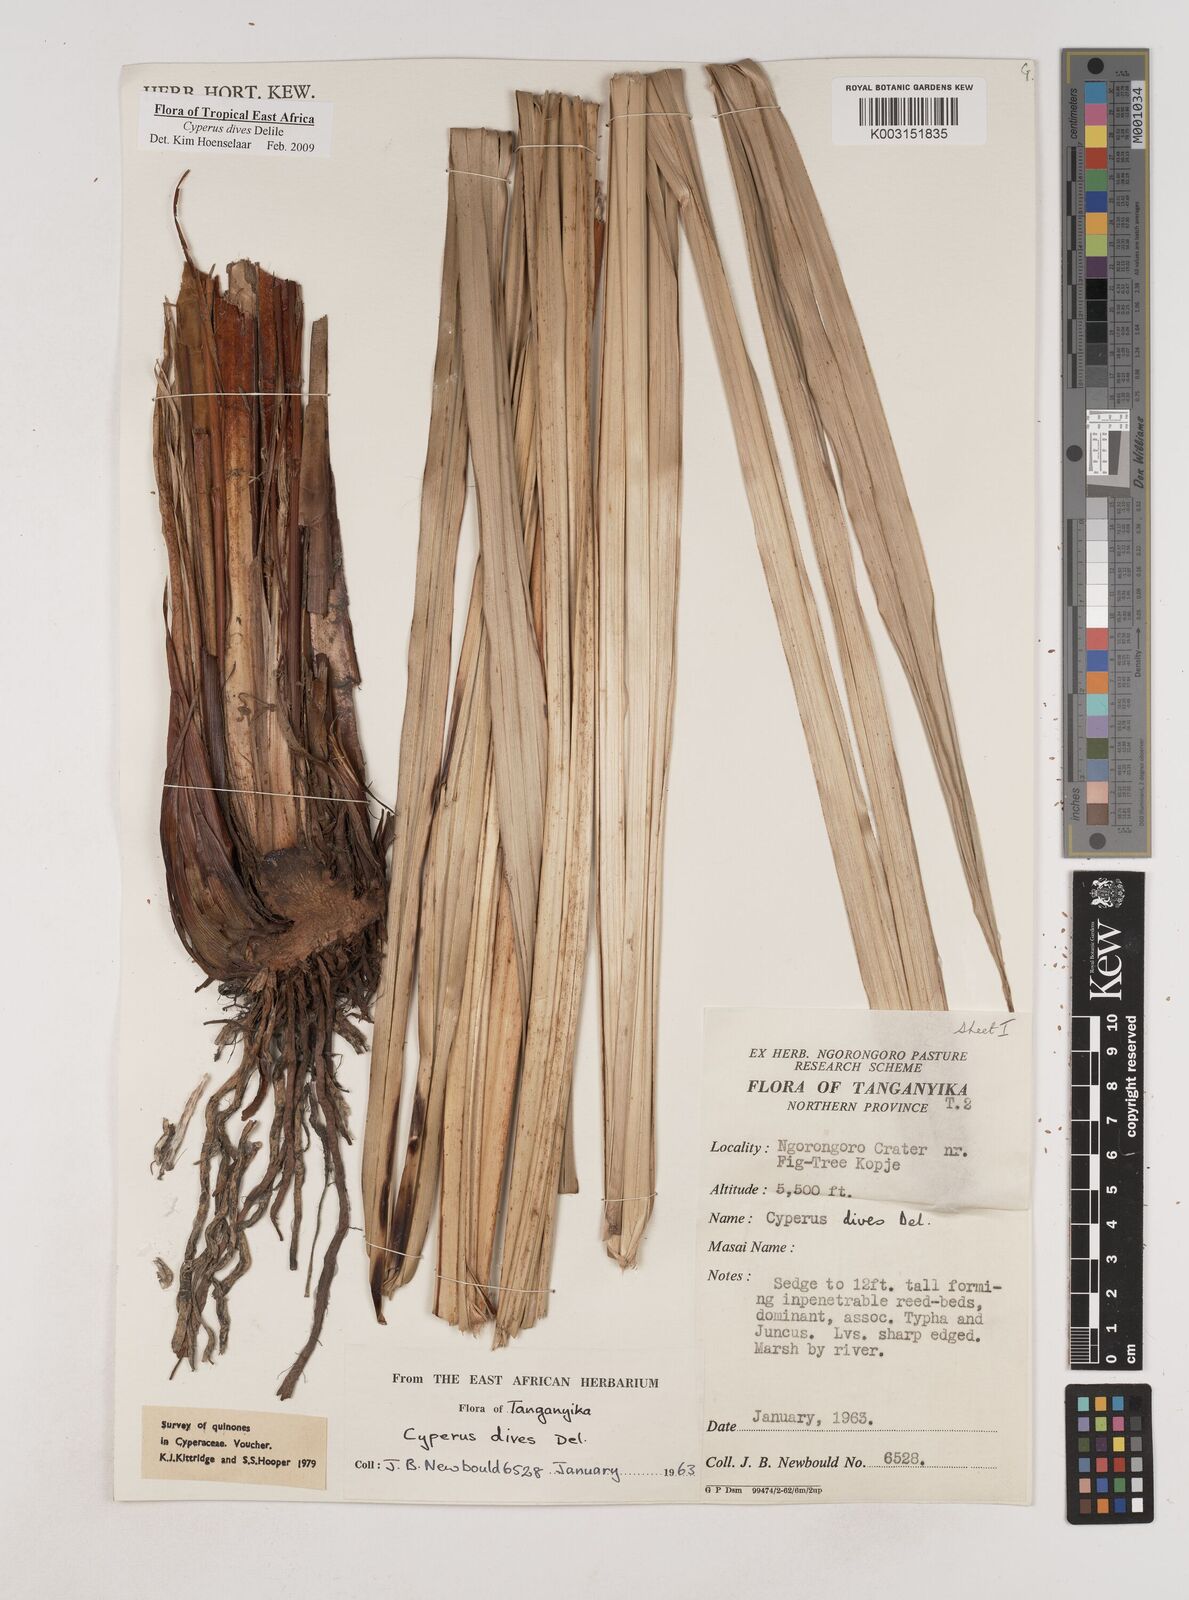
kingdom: Plantae
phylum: Tracheophyta
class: Liliopsida
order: Poales
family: Cyperaceae
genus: Cyperus
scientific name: Cyperus dives
